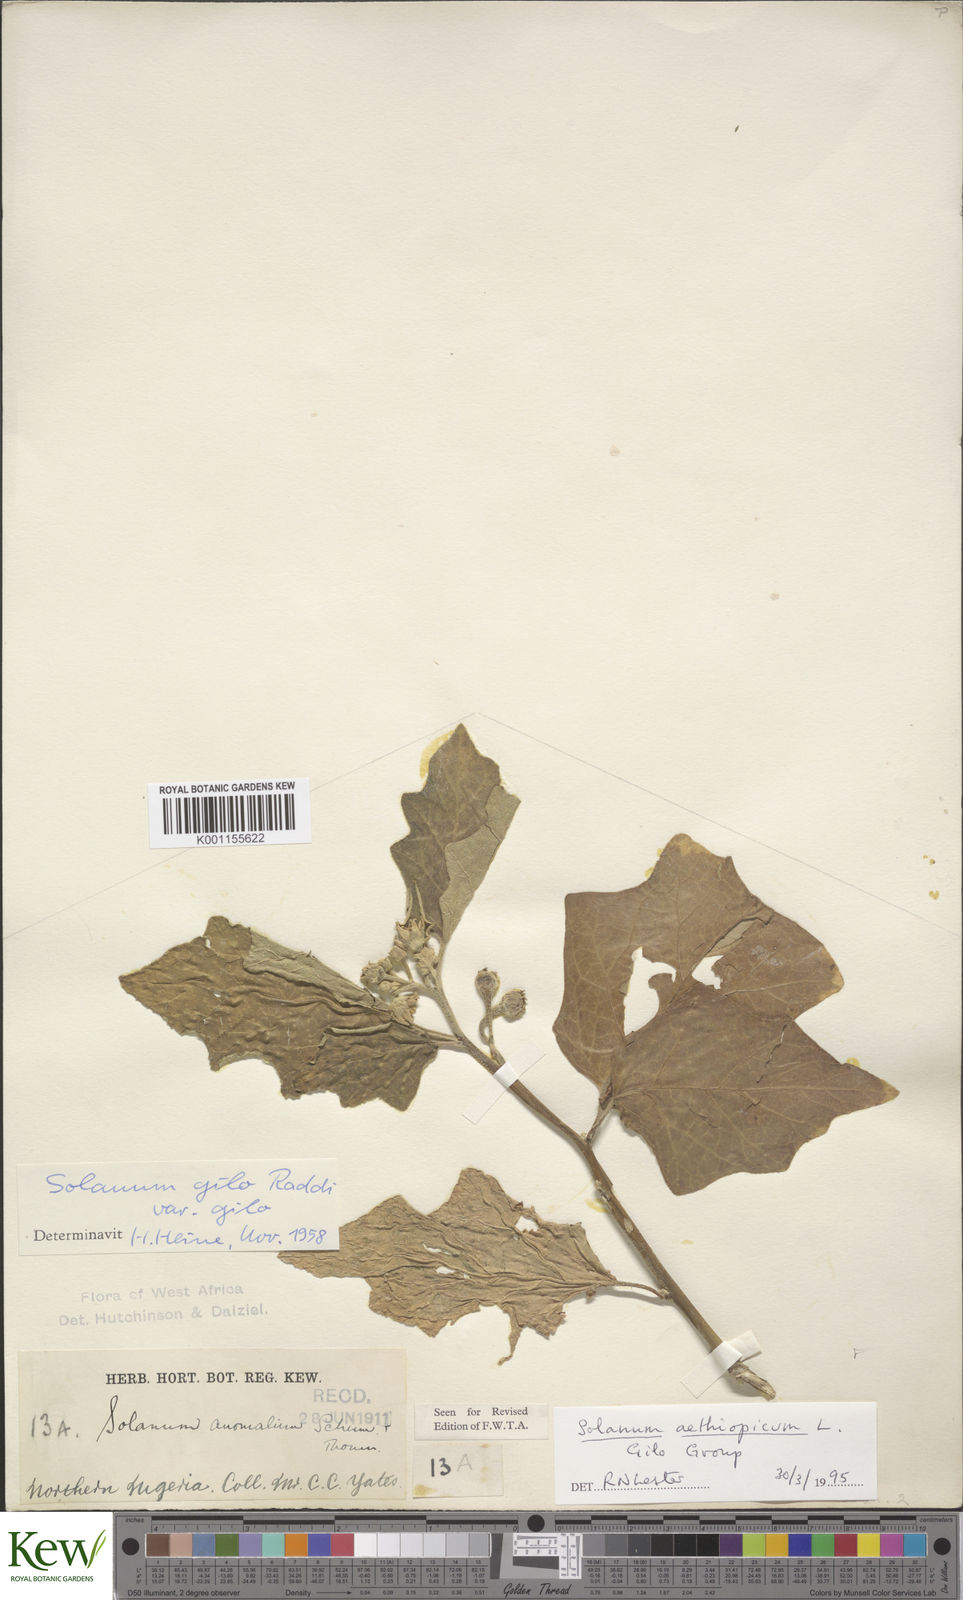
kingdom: Plantae
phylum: Tracheophyta
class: Magnoliopsida
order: Solanales
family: Solanaceae
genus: Solanum
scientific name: Solanum aethiopicum
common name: Gilo
